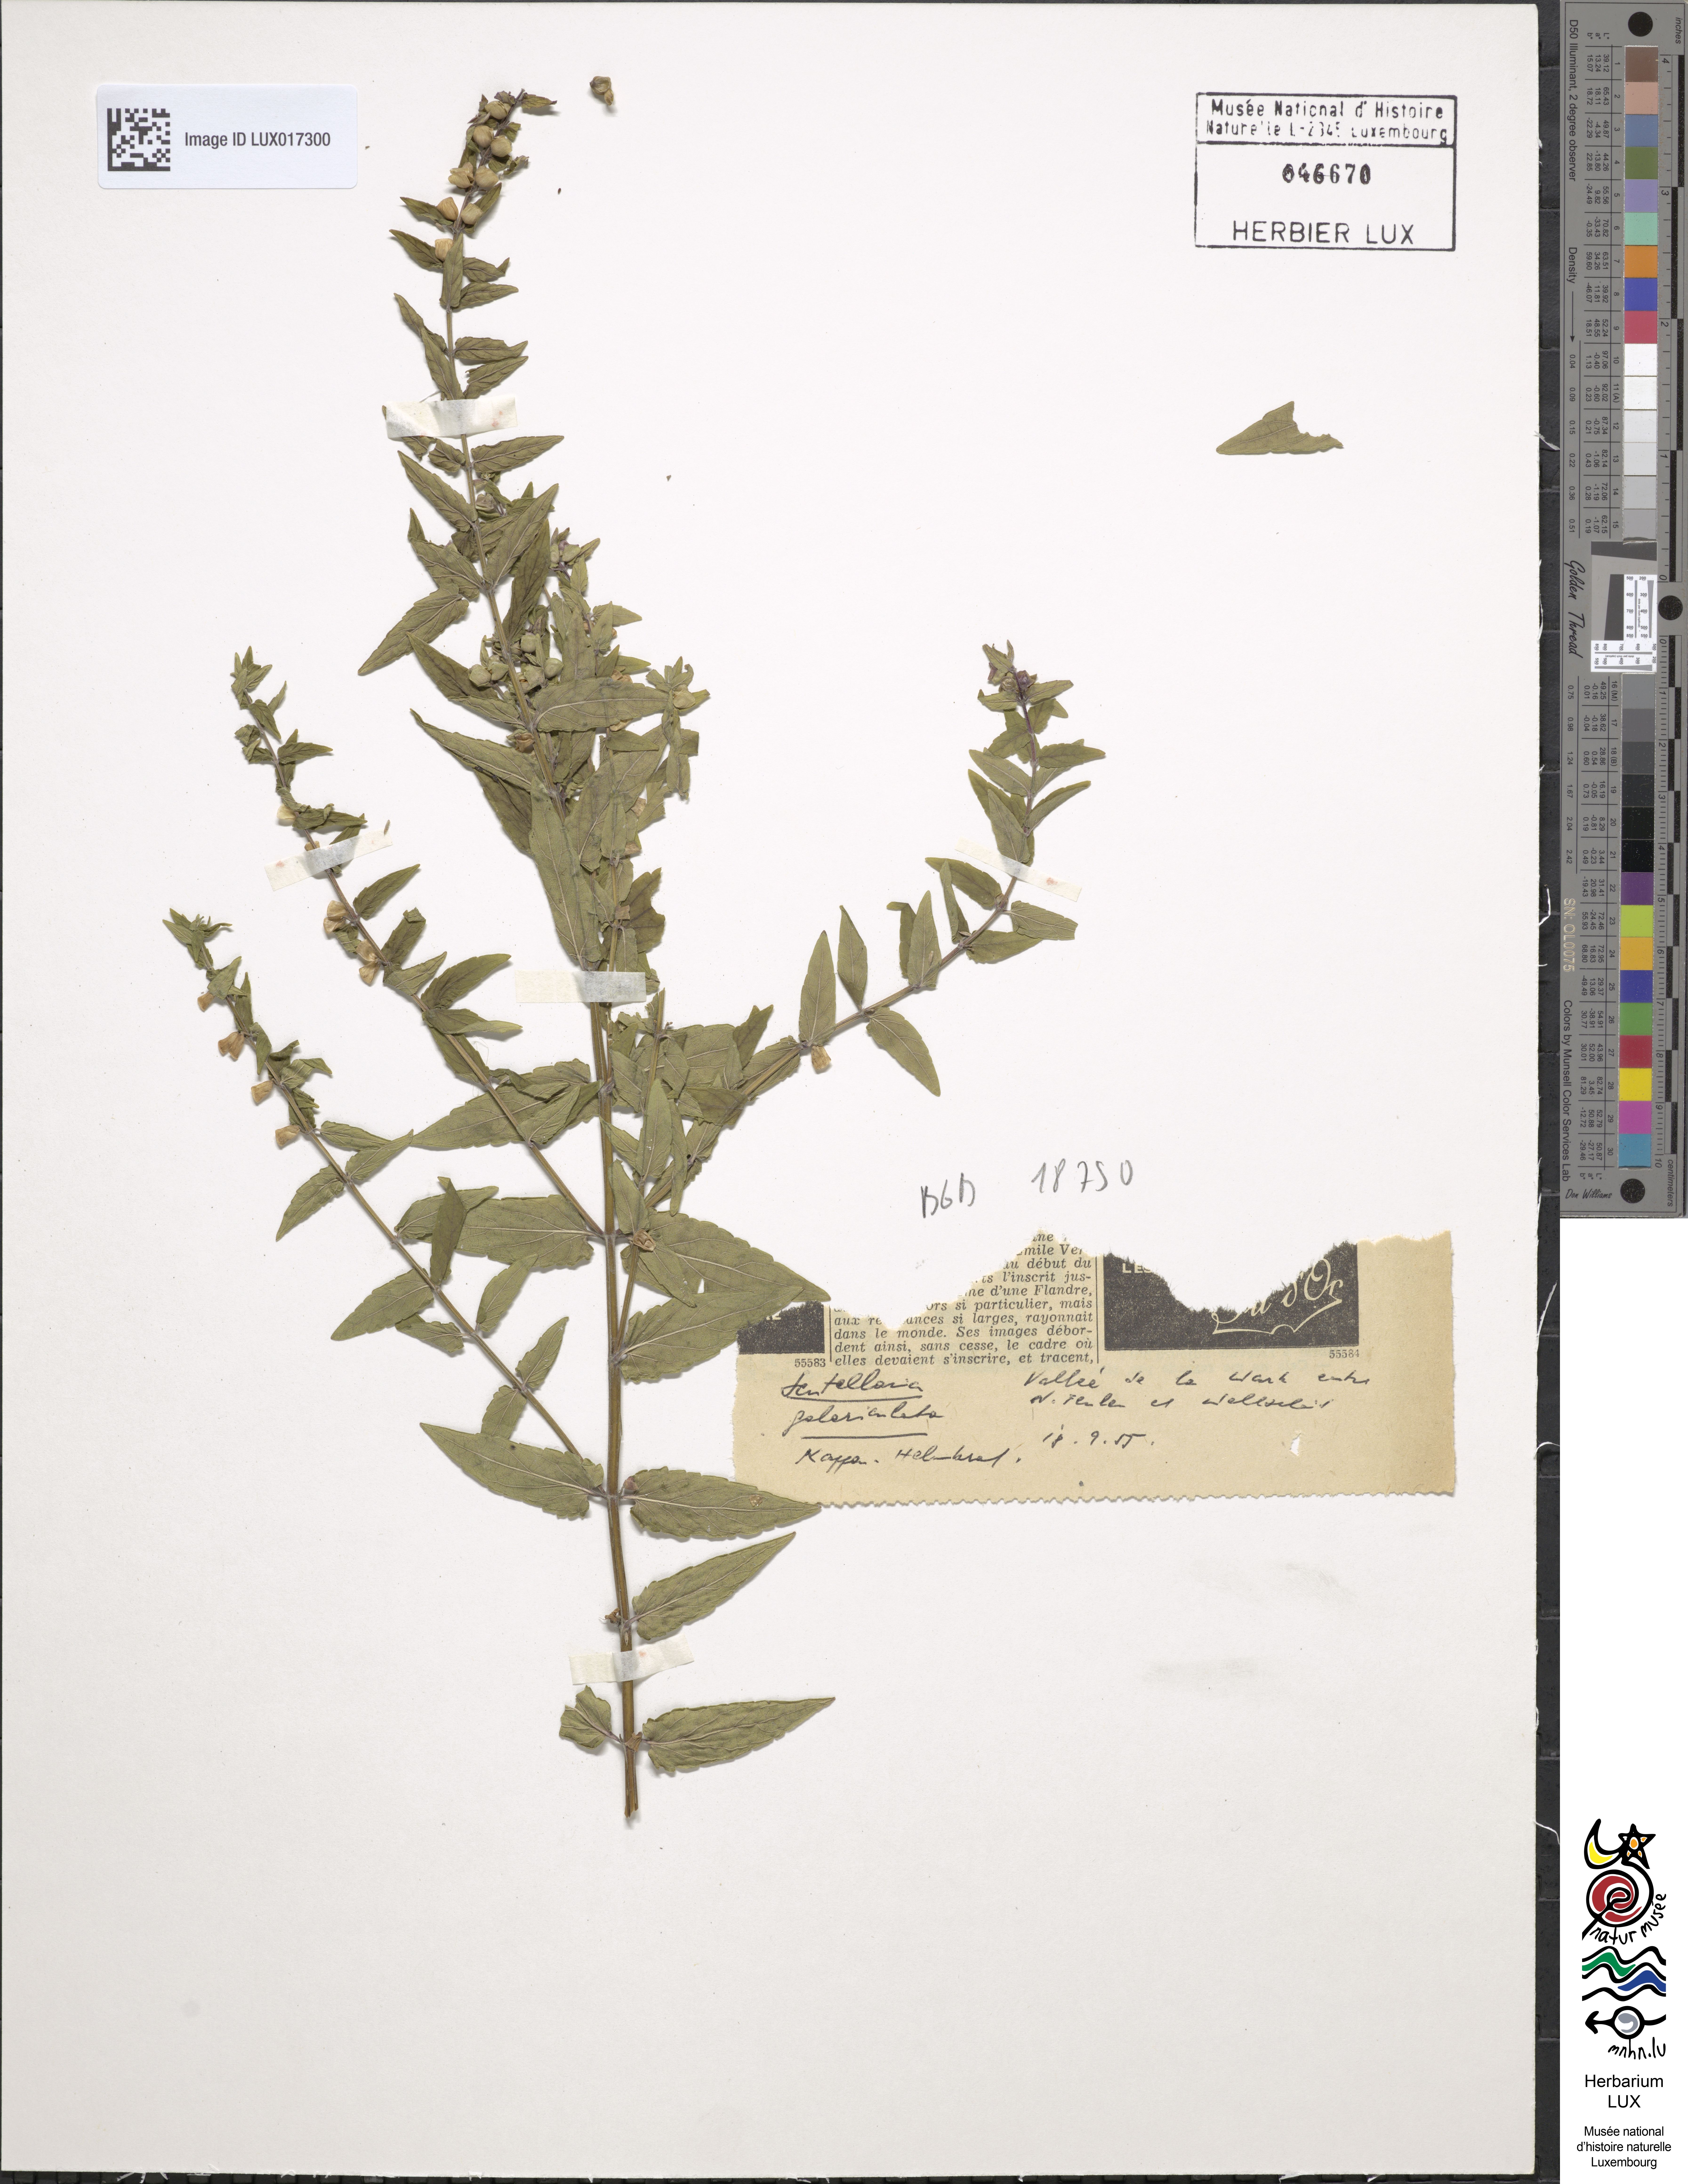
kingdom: Plantae
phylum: Tracheophyta
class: Magnoliopsida
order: Lamiales
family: Lamiaceae
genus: Scutellaria
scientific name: Scutellaria galericulata
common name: Skullcap
